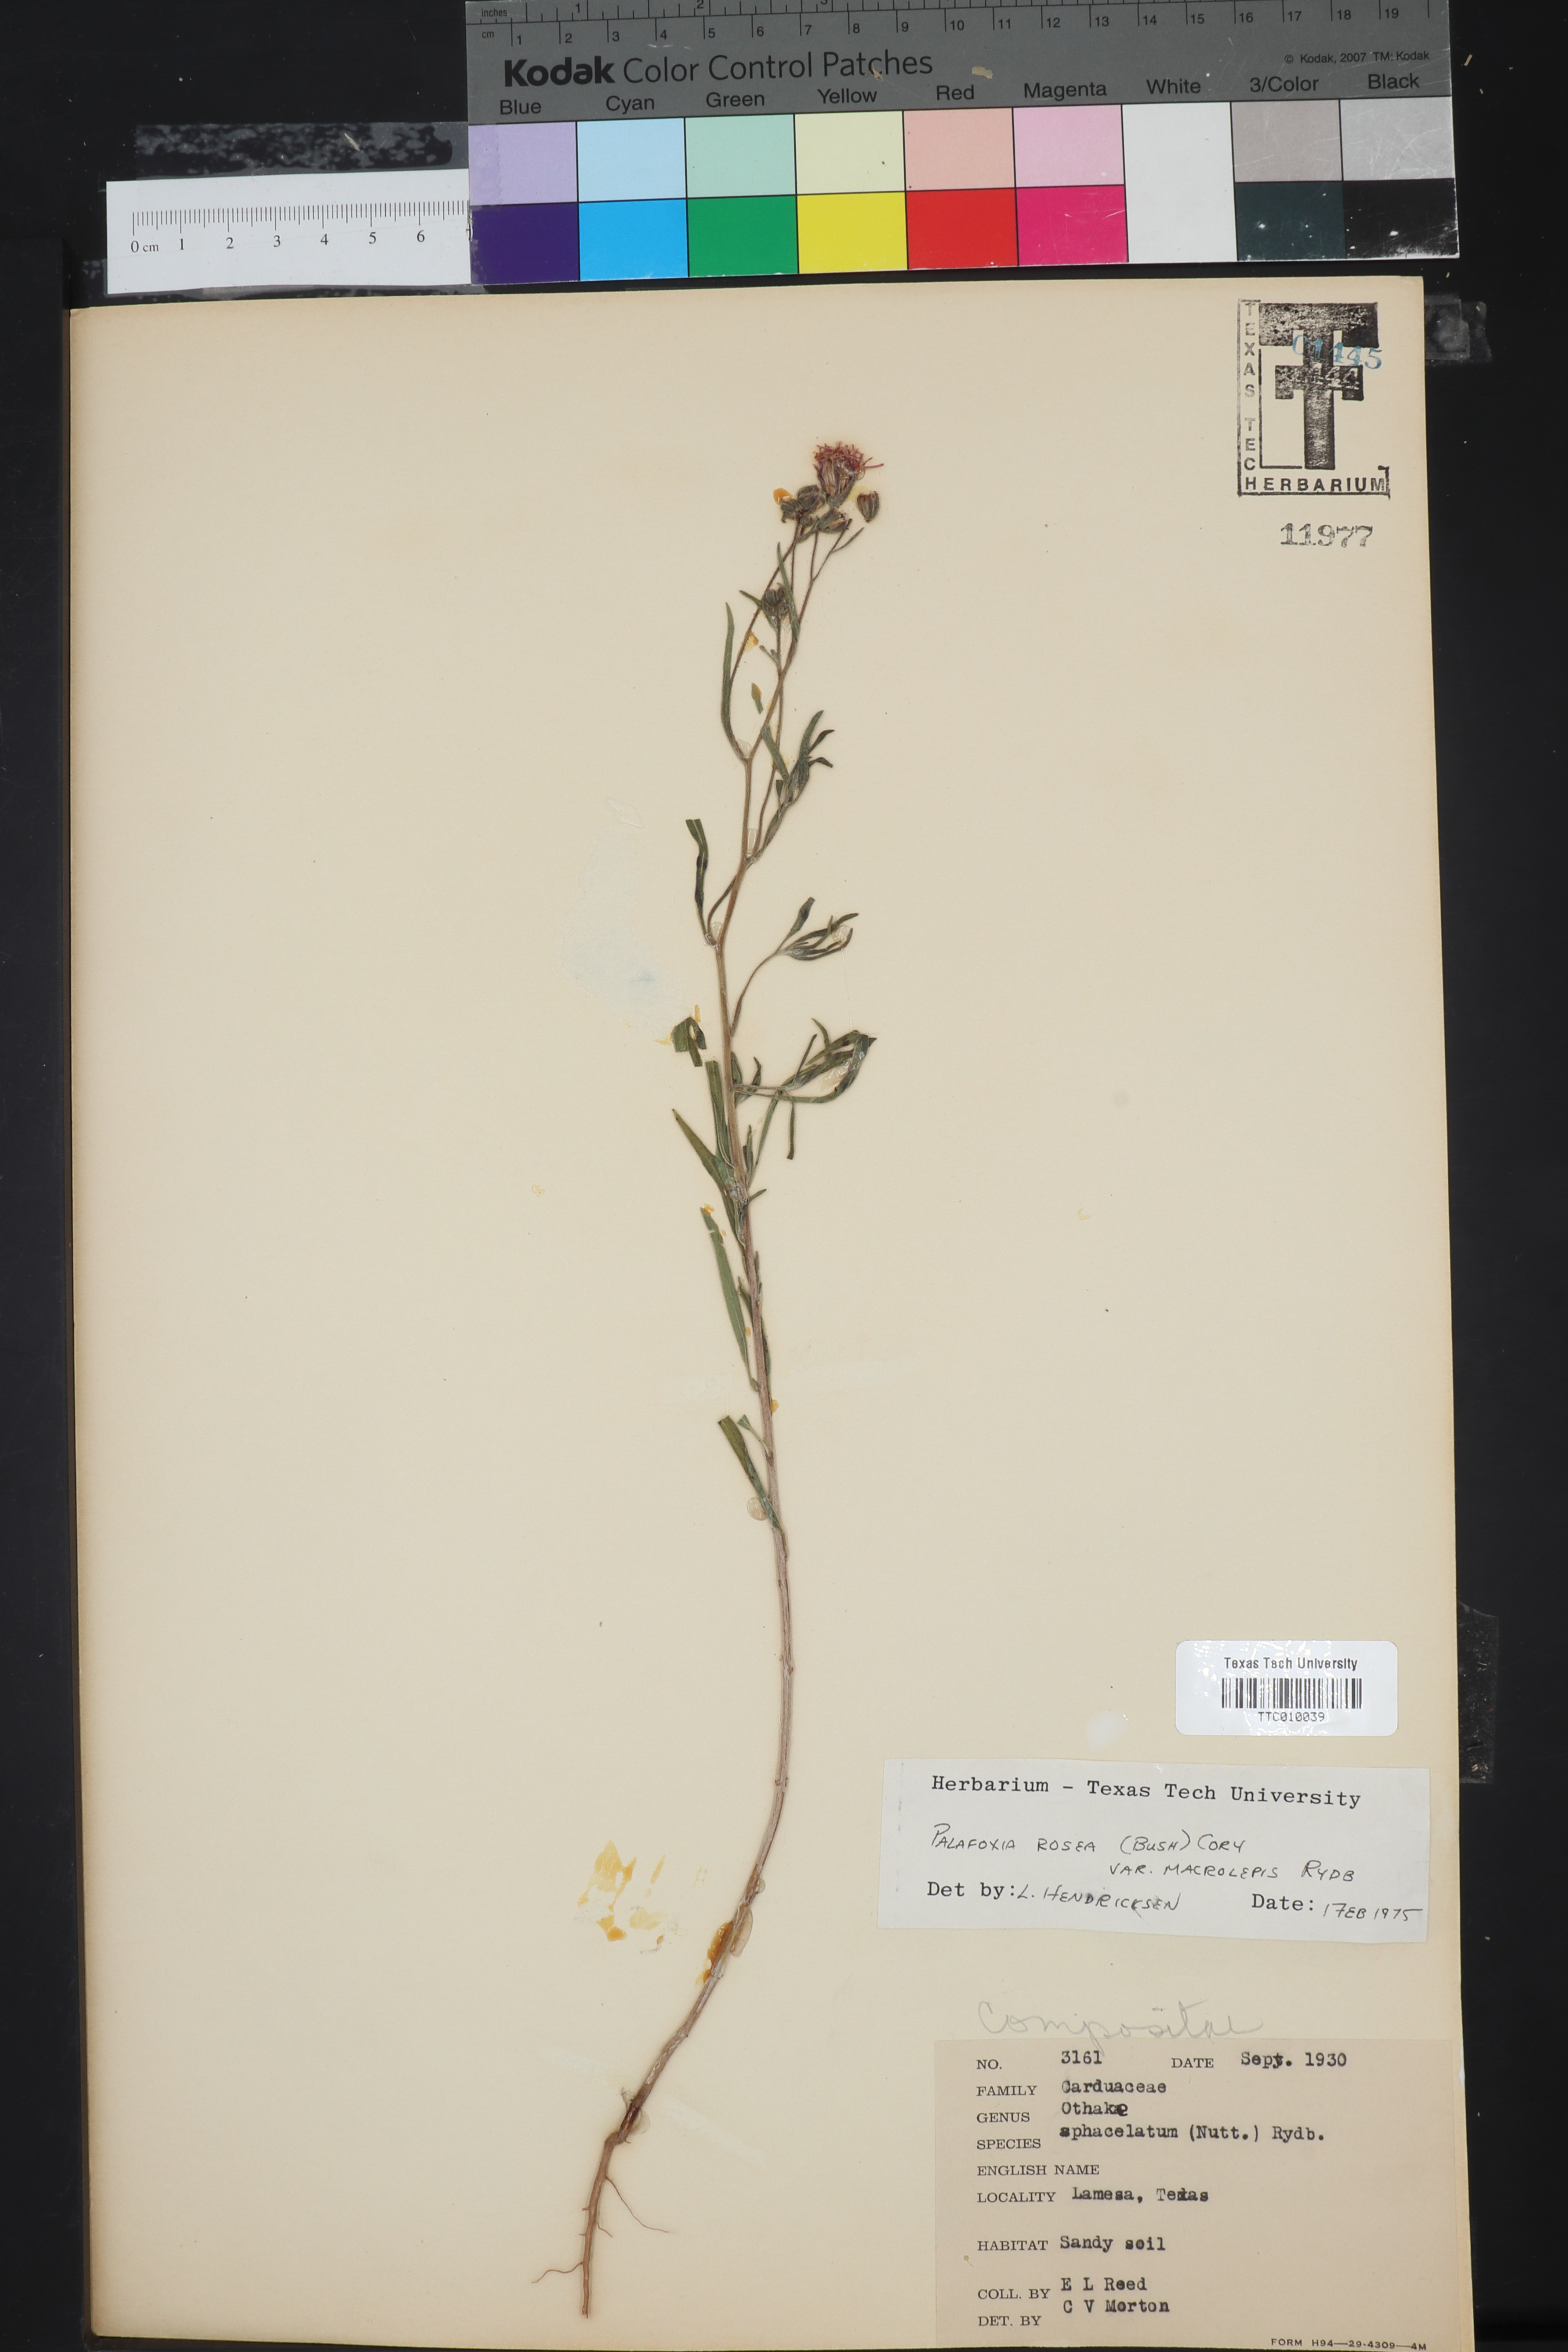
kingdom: Plantae
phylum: Tracheophyta
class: Magnoliopsida
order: Asterales
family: Asteraceae
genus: Palafoxia
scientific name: Palafoxia rosea
